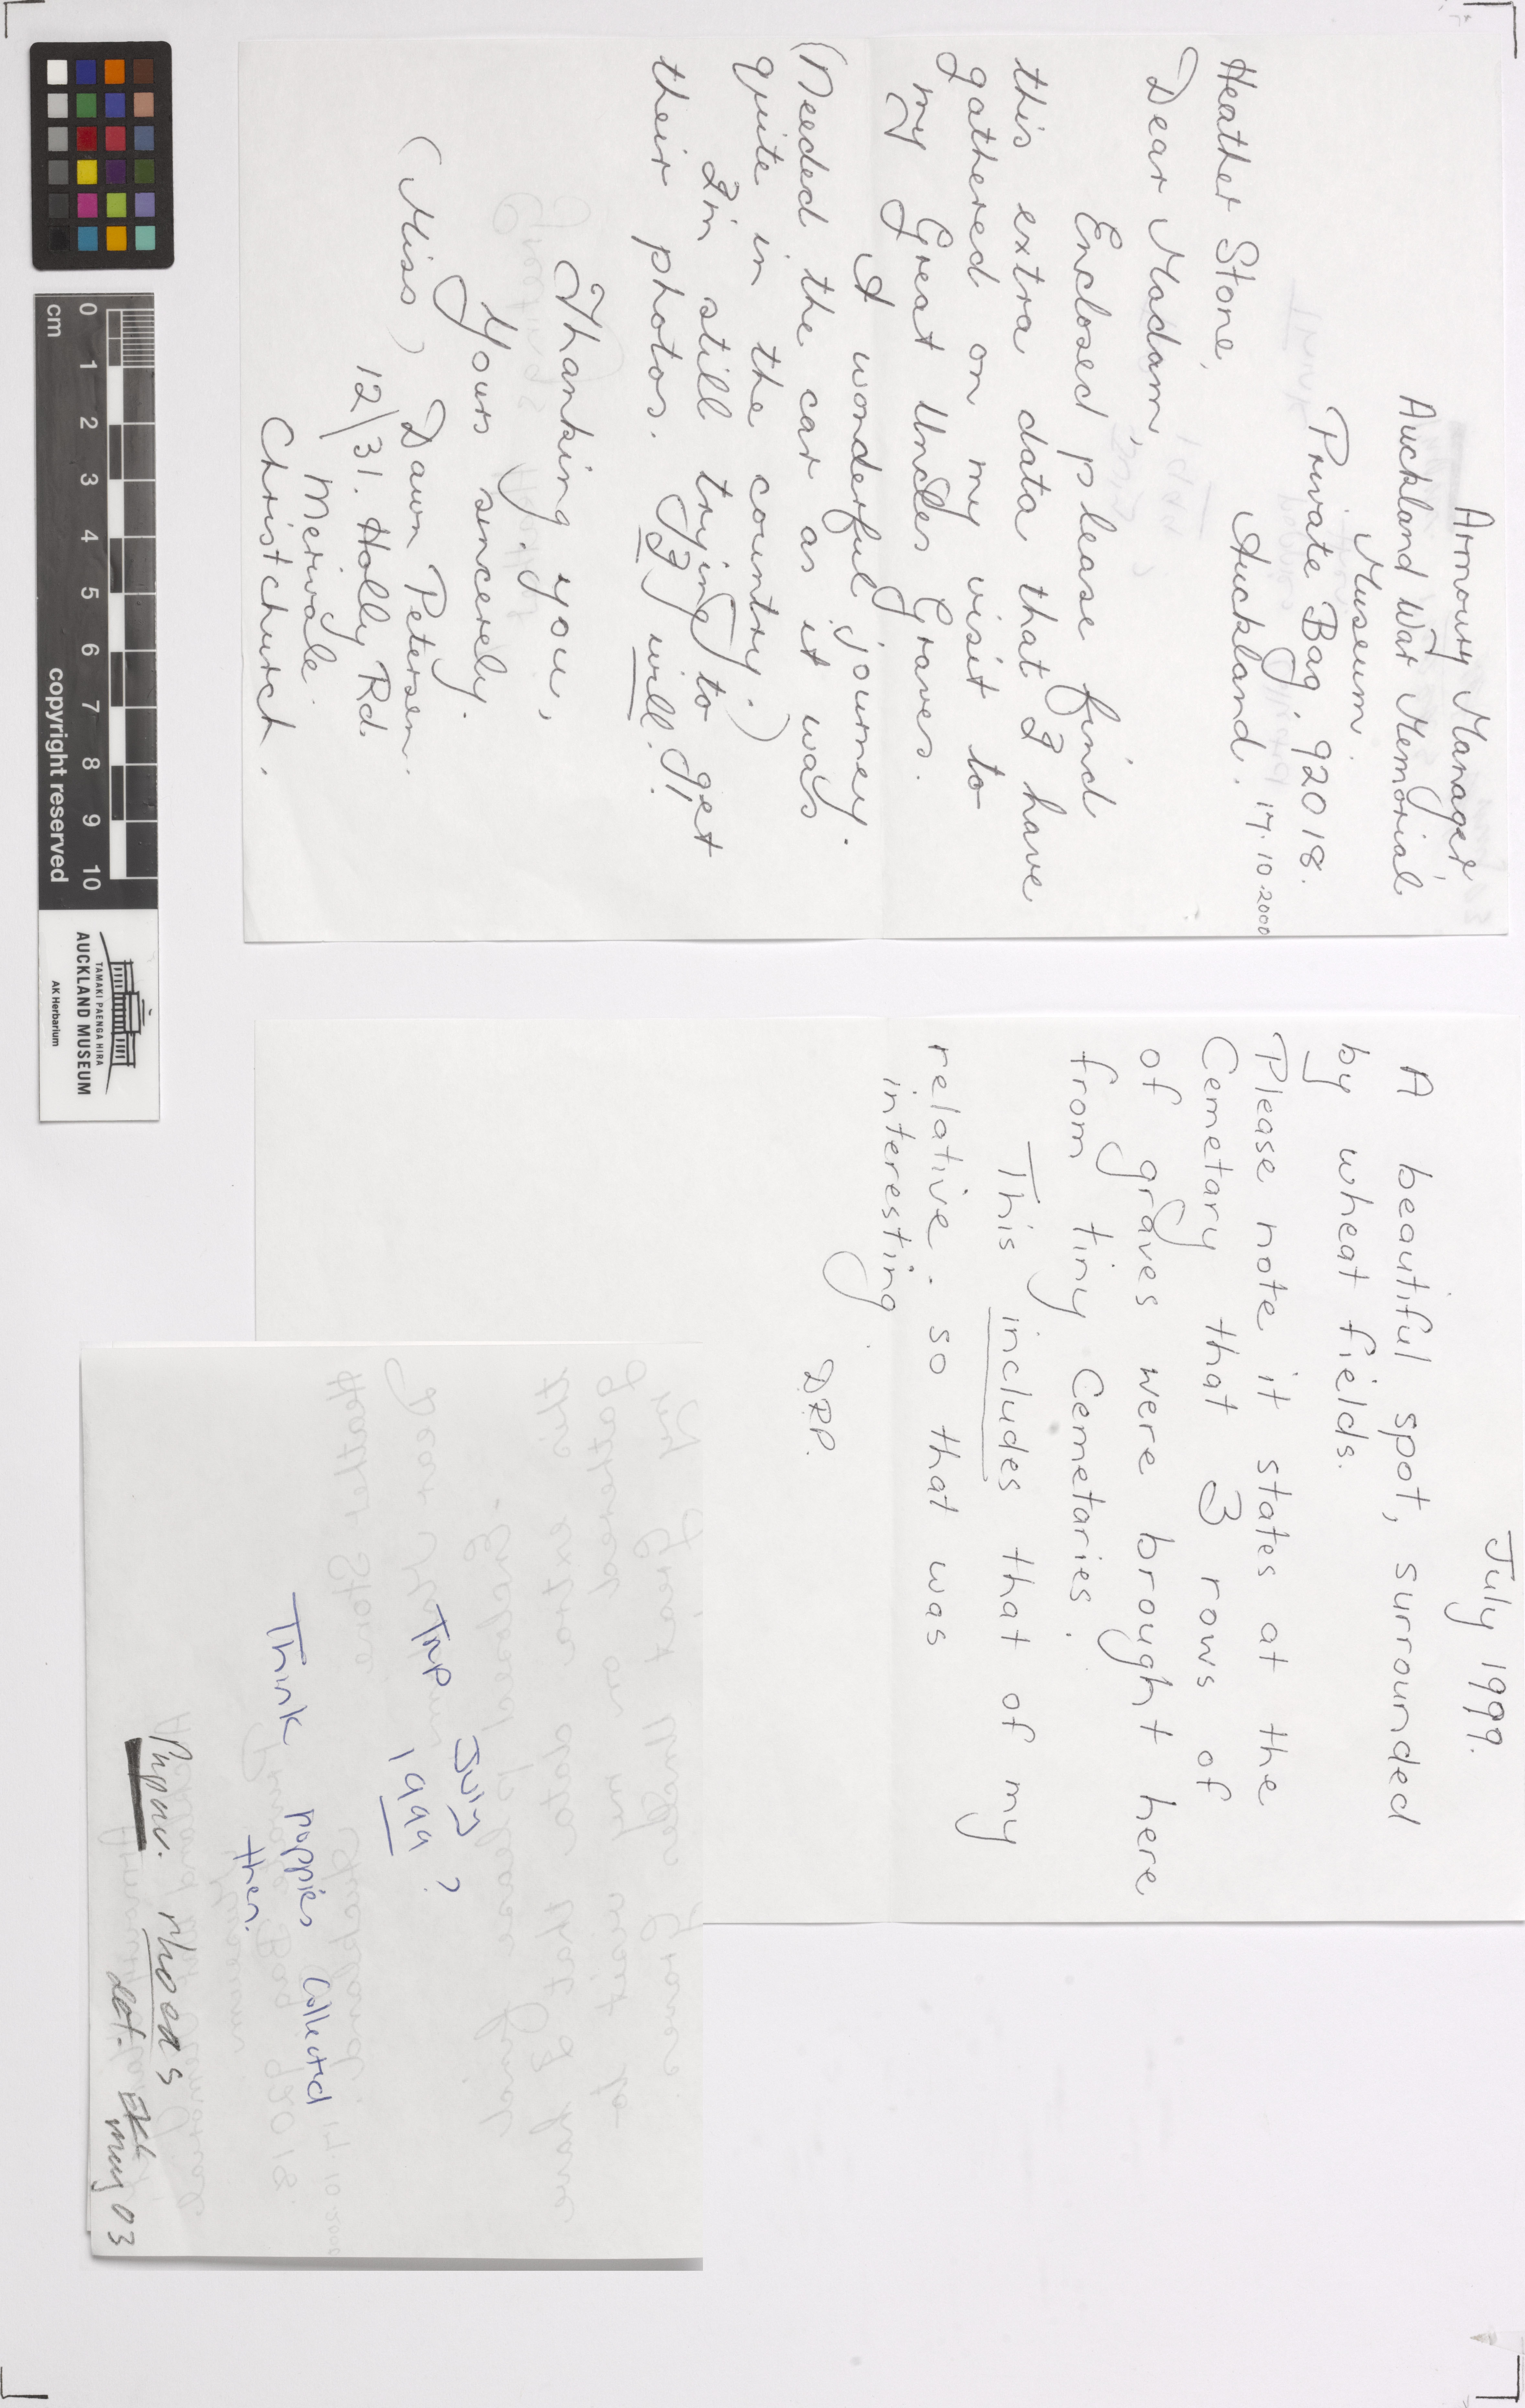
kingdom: Plantae
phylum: Tracheophyta
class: Magnoliopsida
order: Ranunculales
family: Papaveraceae
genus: Papaver
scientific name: Papaver rhoeas
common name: Corn poppy
